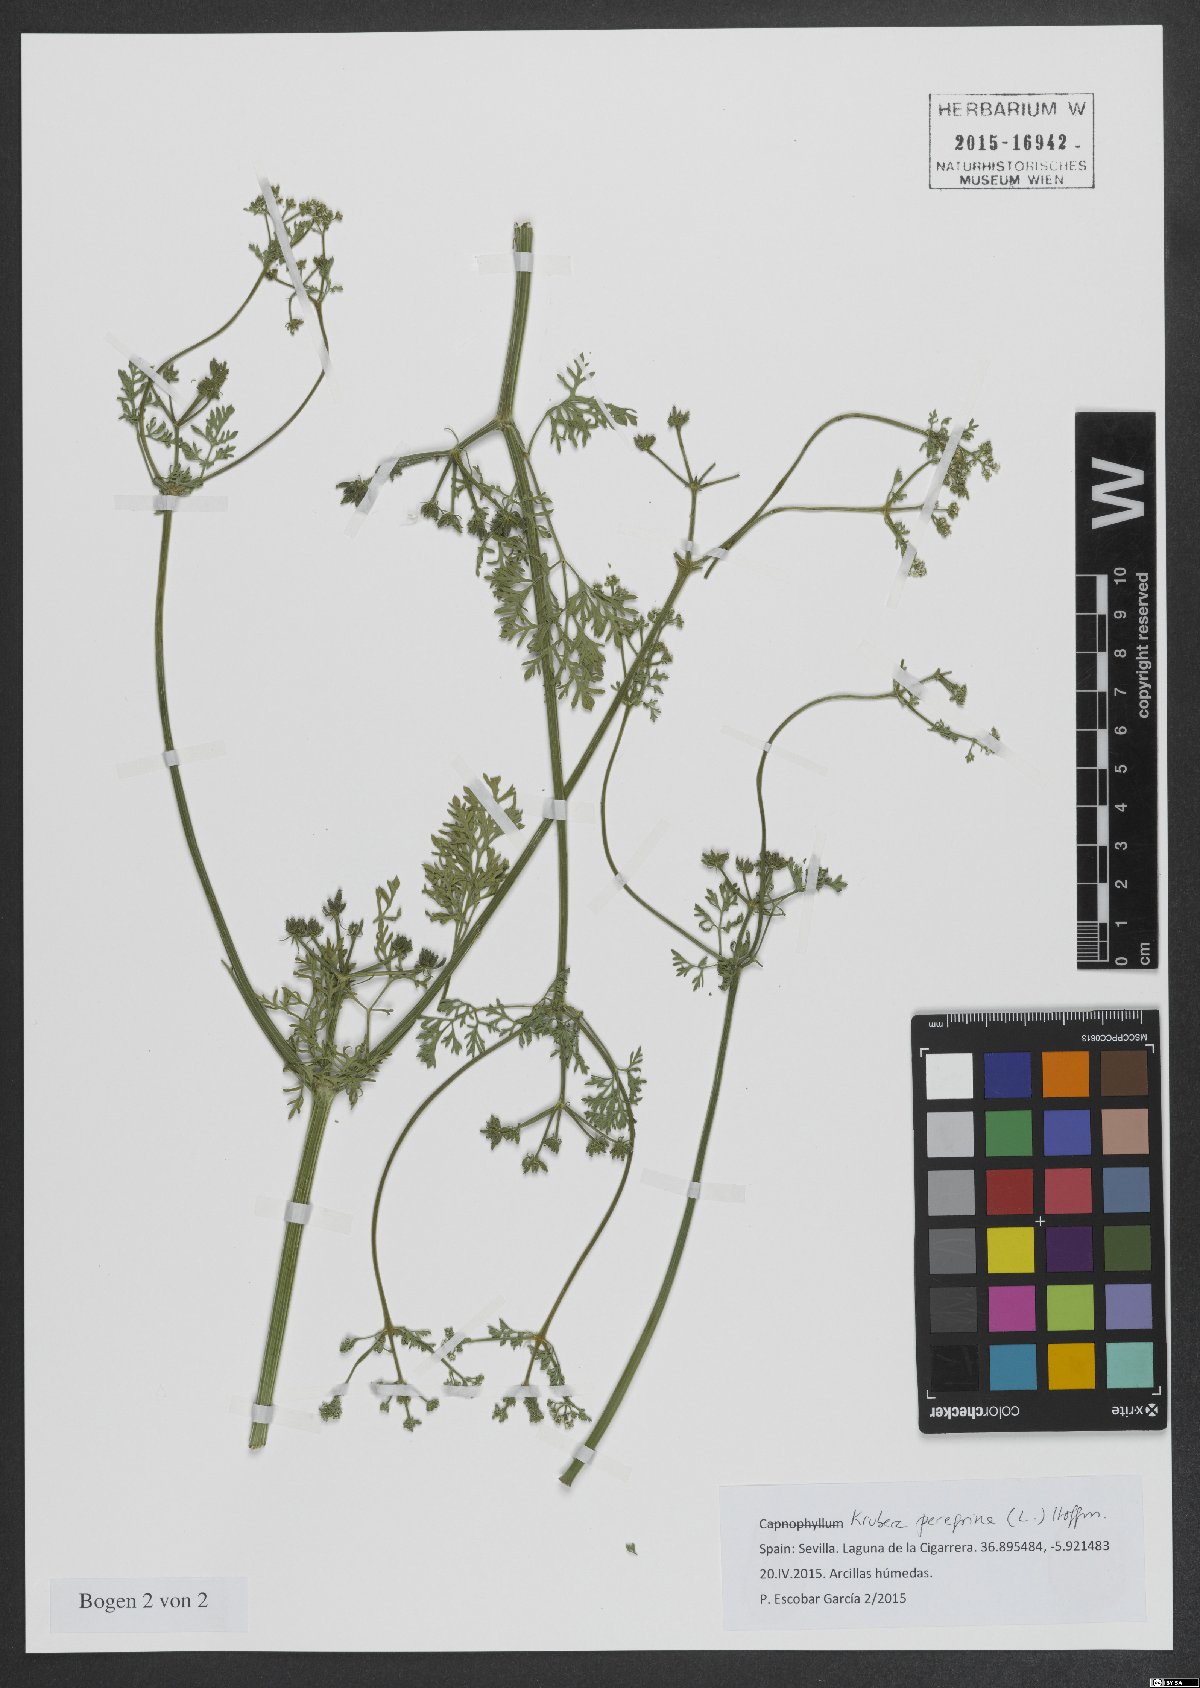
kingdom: Plantae
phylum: Tracheophyta
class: Magnoliopsida
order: Apiales
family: Apiaceae
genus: Krubera
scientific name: Krubera peregrina
